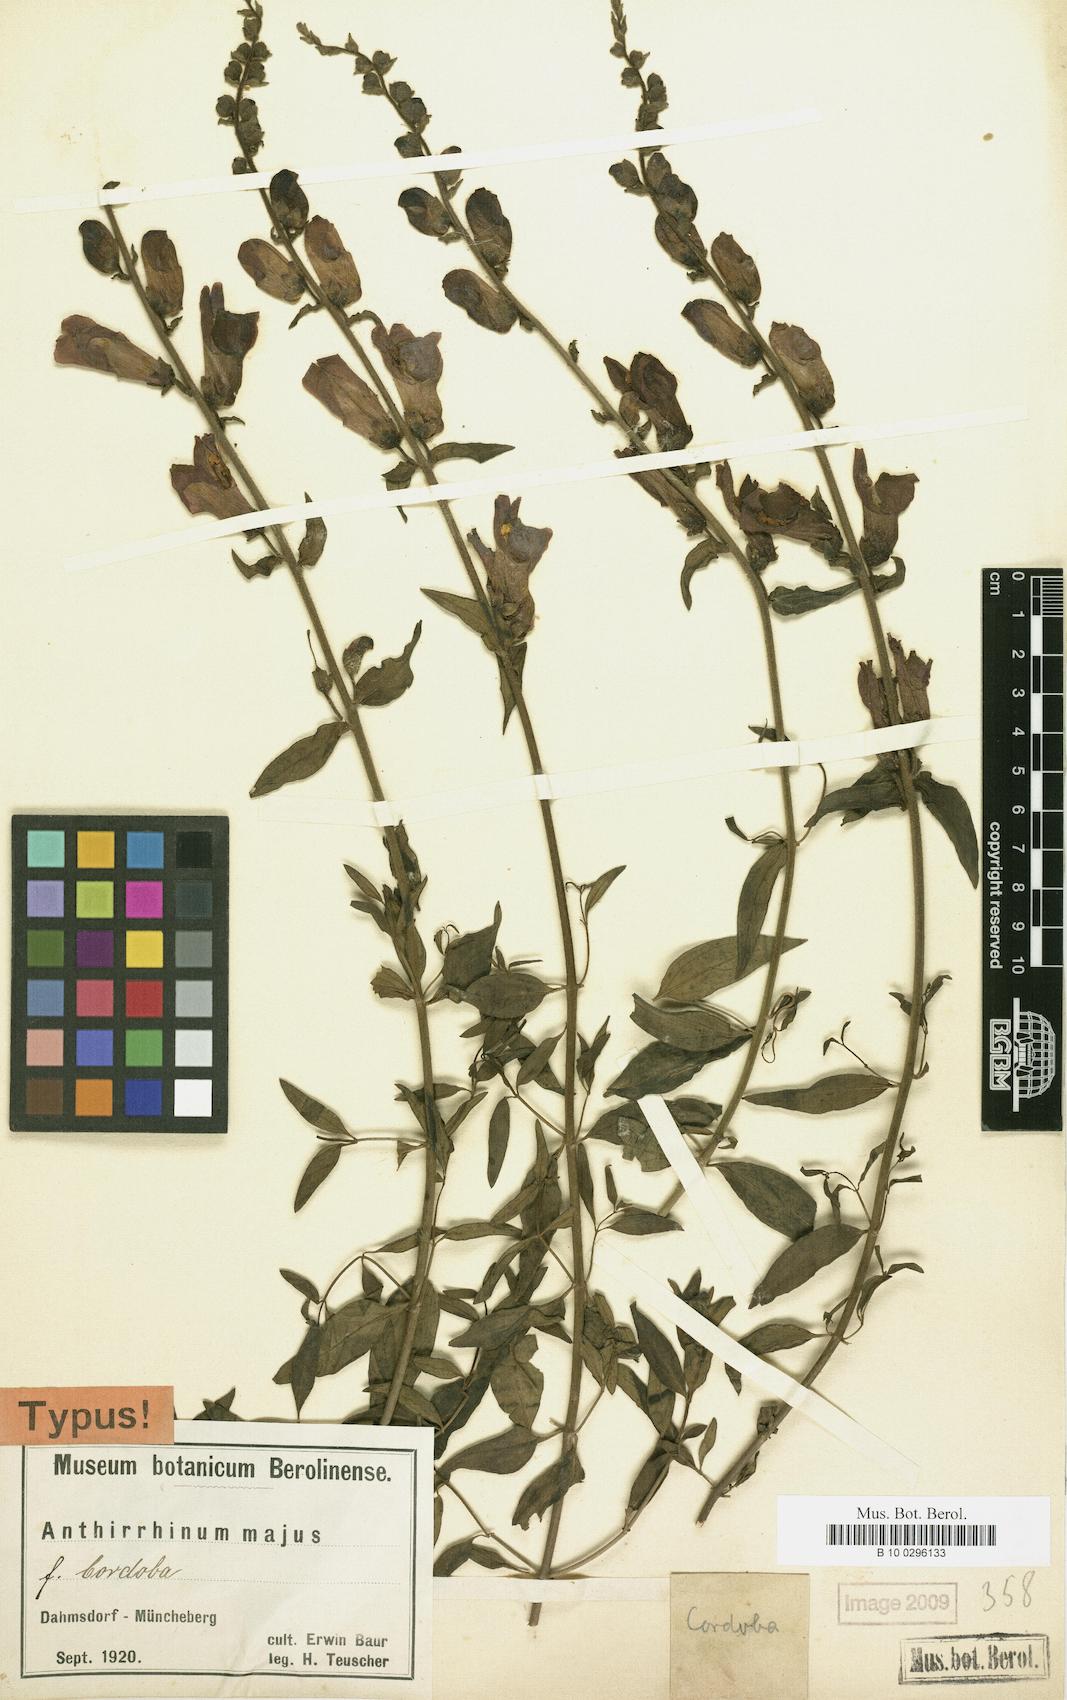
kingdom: Plantae
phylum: Tracheophyta
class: Magnoliopsida
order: Lamiales
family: Plantaginaceae
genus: Antirrhinum
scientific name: Antirrhinum majus
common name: Snapdragon
